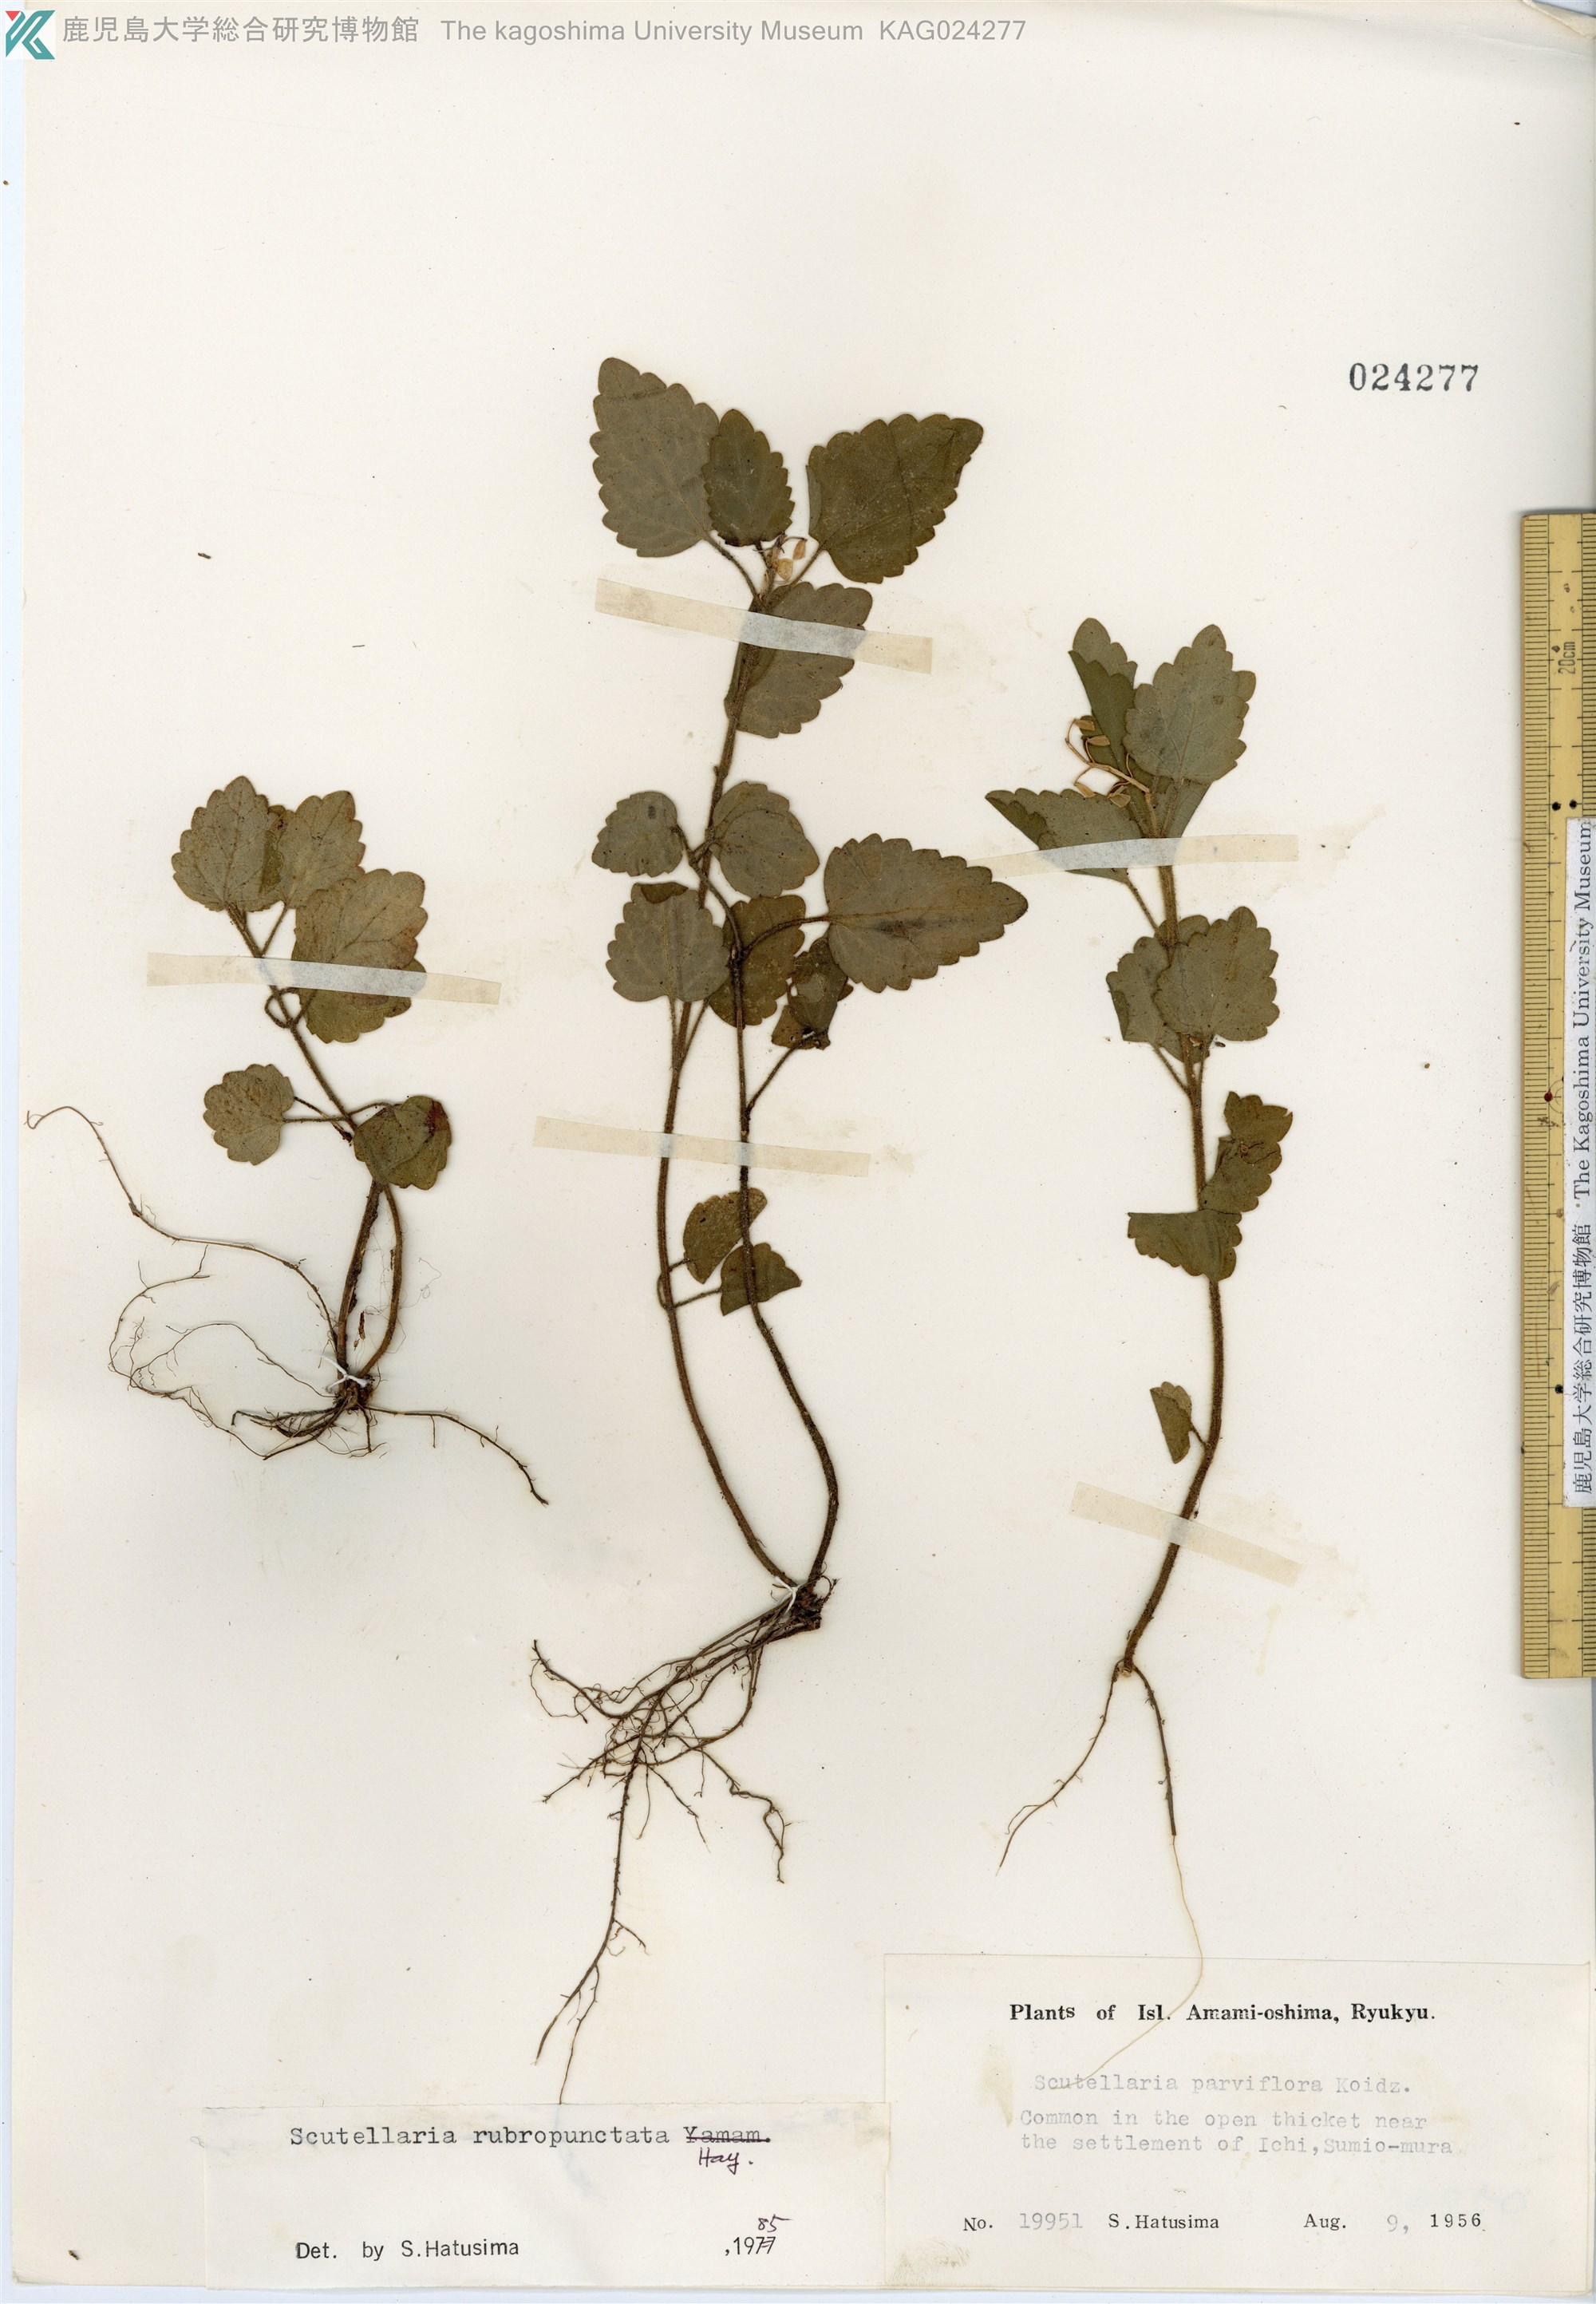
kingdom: Plantae
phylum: Tracheophyta
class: Magnoliopsida
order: Lamiales
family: Lamiaceae
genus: Scutellaria
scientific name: Scutellaria rubropunctata
